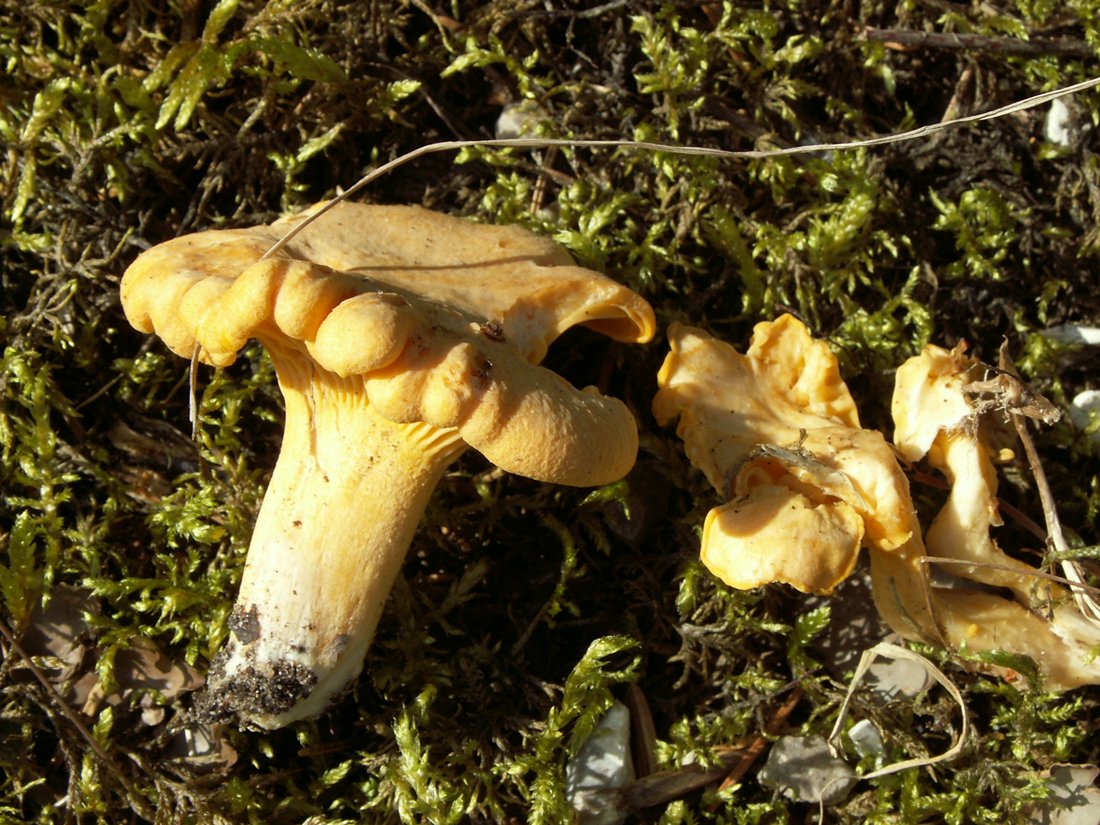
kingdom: Fungi
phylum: Basidiomycota
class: Agaricomycetes
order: Cantharellales
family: Hydnaceae
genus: Cantharellus
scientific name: Cantharellus cibarius
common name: almindelig kantarel
